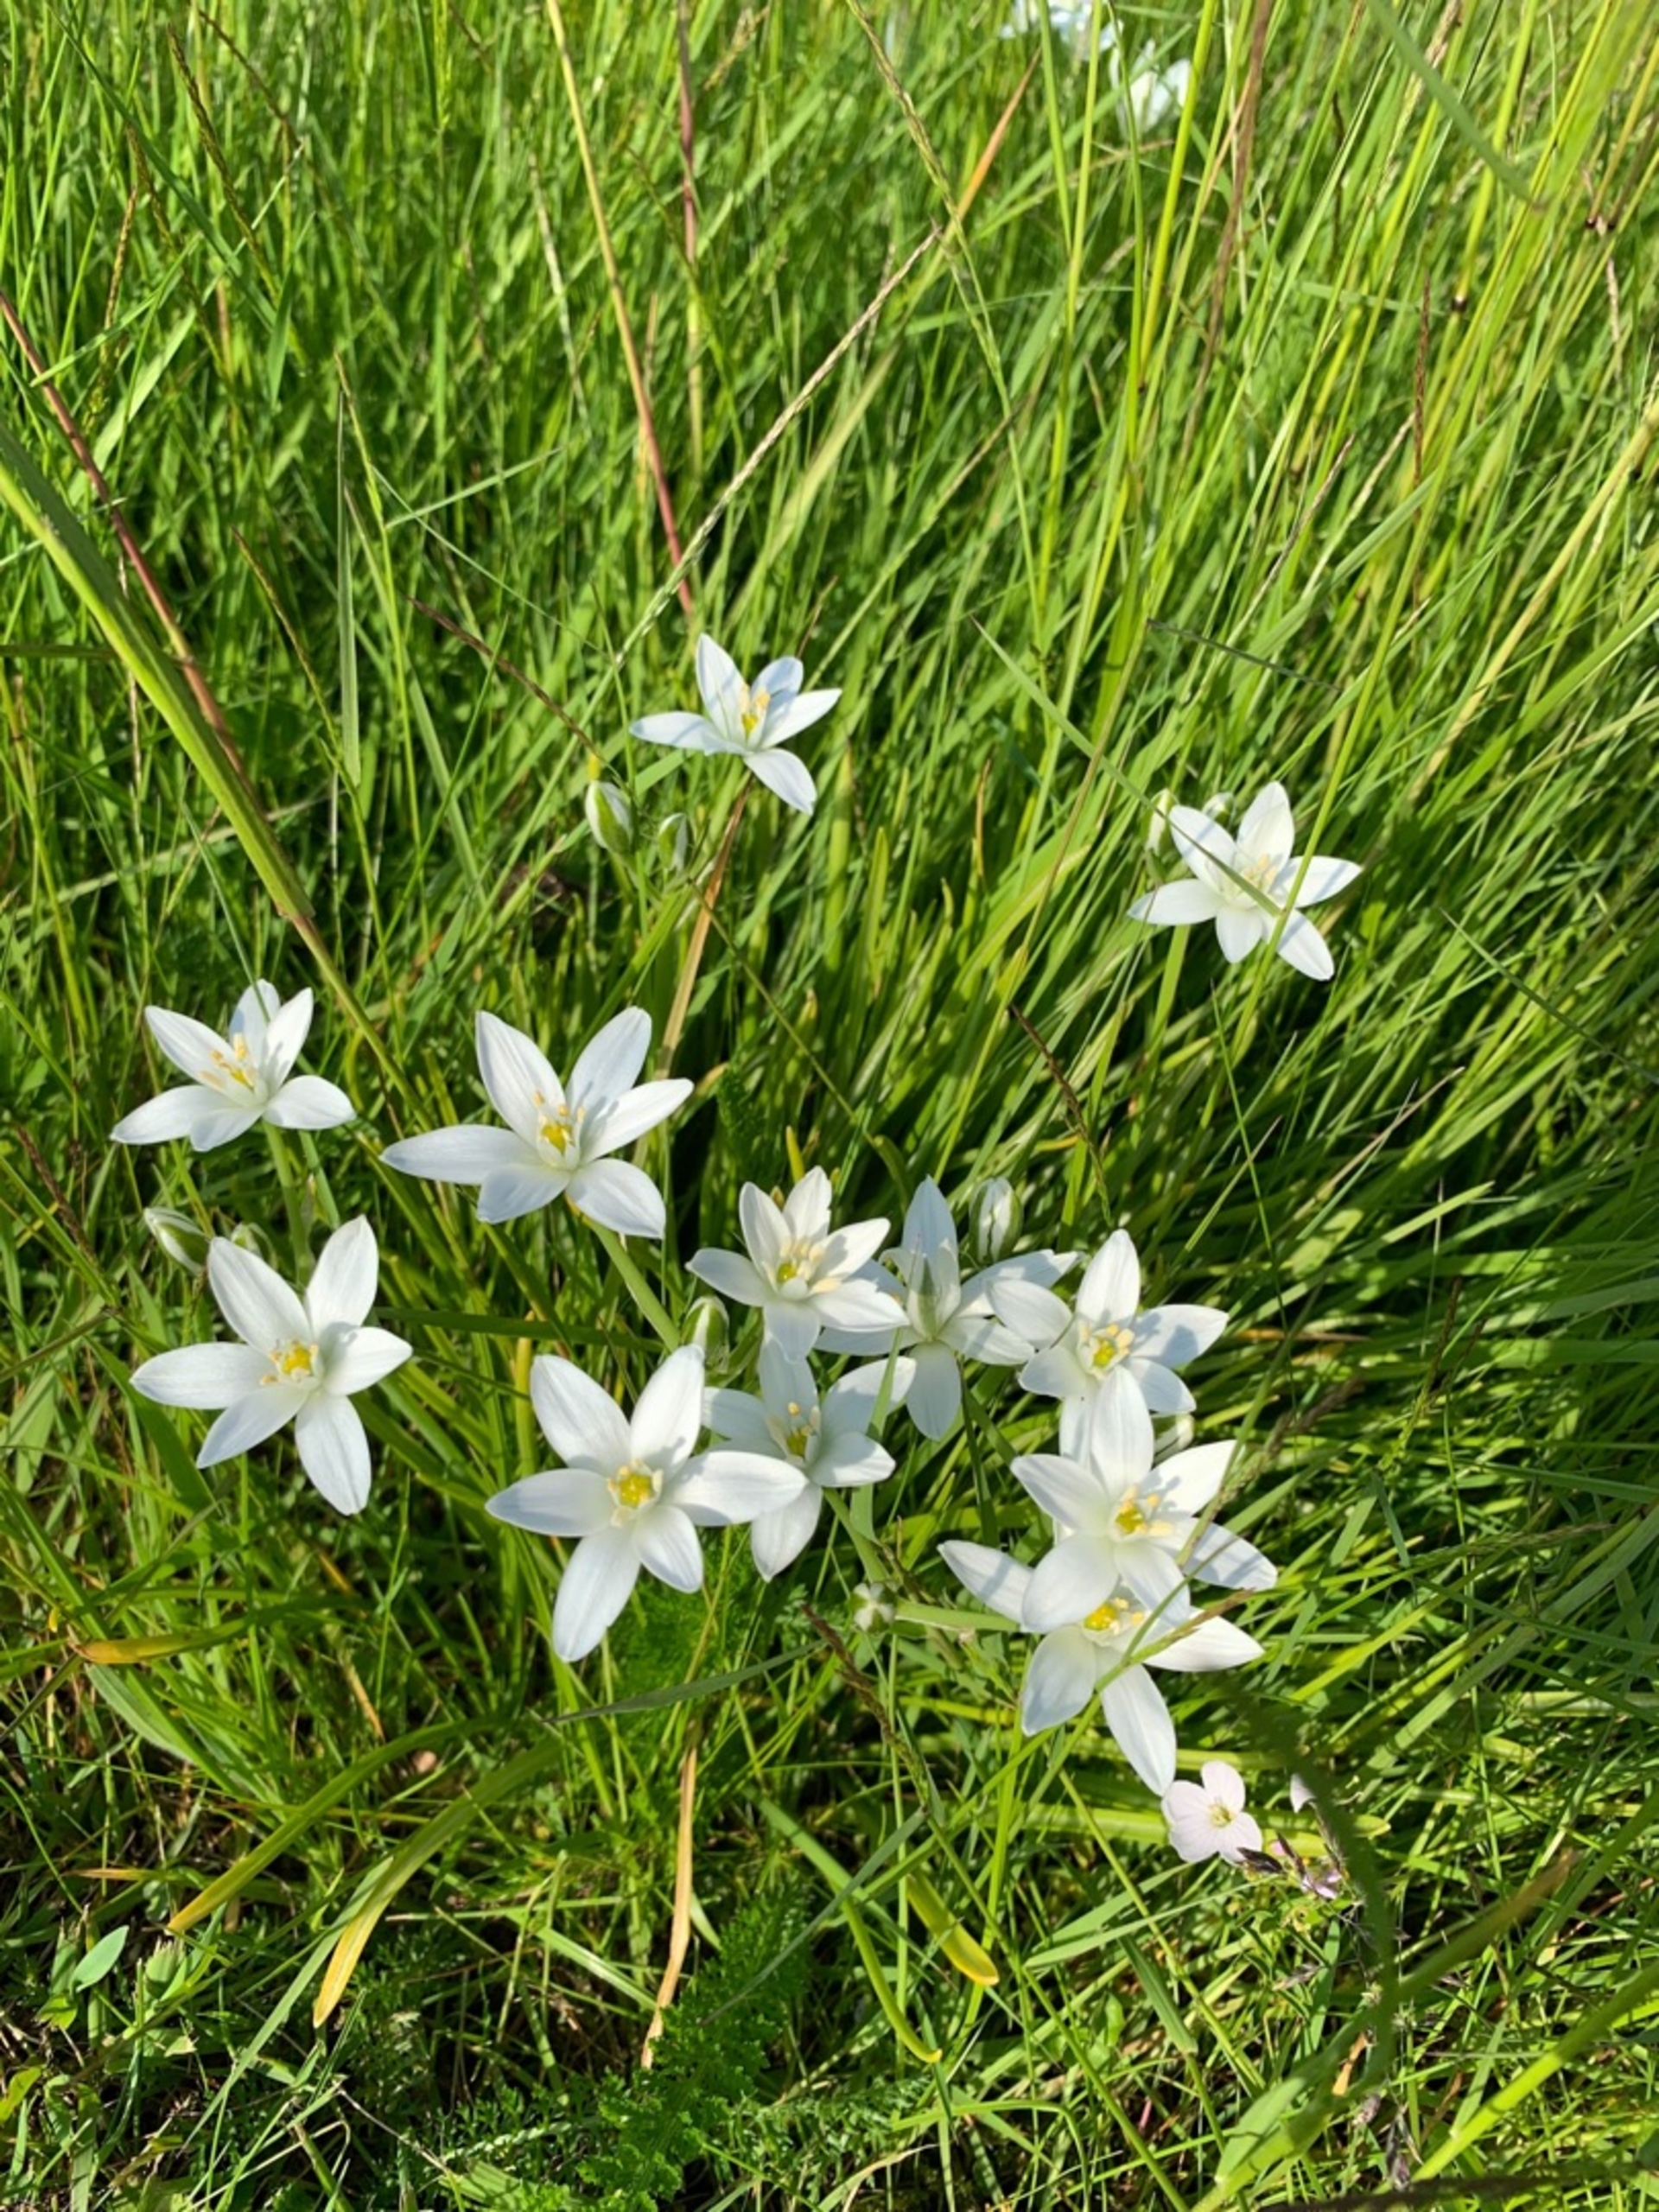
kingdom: Plantae
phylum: Tracheophyta
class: Liliopsida
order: Asparagales
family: Asparagaceae
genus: Ornithogalum
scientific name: Ornithogalum umbellatum
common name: Kost-fuglemælk
